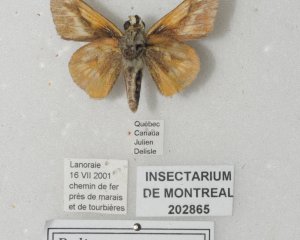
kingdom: Animalia
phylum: Arthropoda
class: Insecta
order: Lepidoptera
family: Hesperiidae
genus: Polites
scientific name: Polites
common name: Long Dash Skipper
